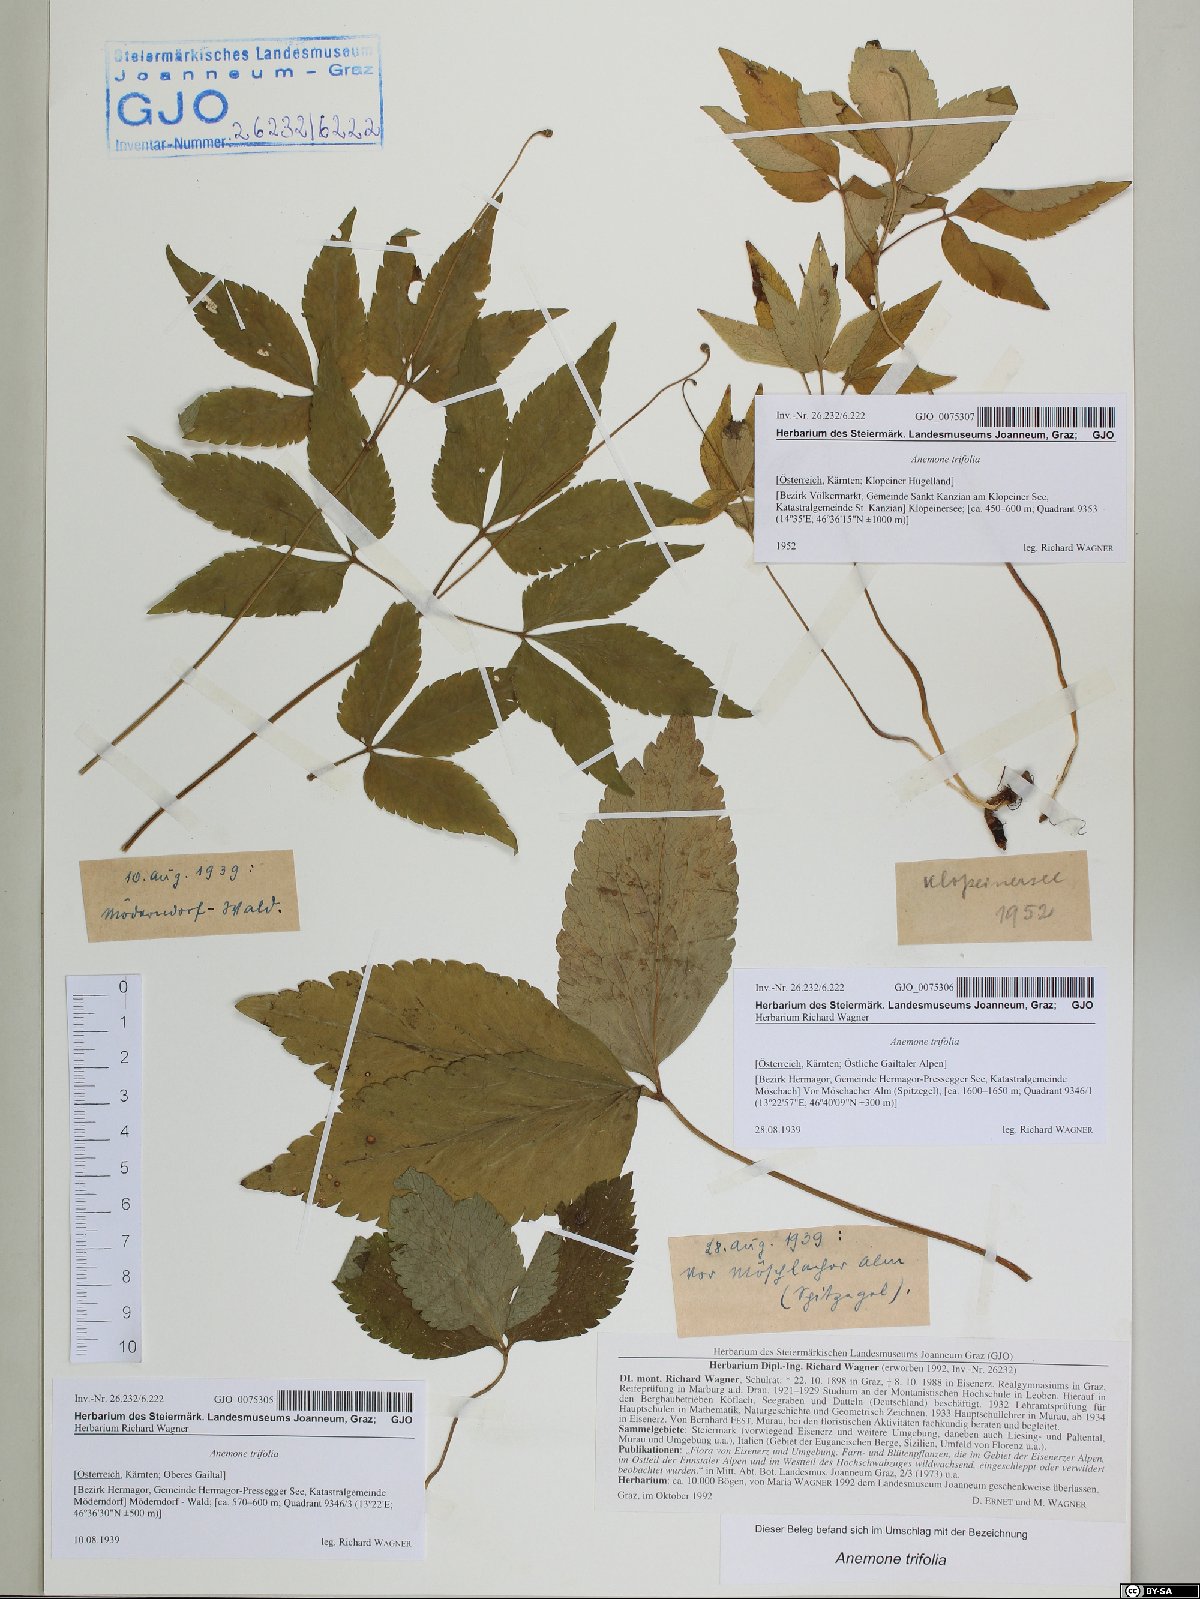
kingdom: Plantae
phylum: Tracheophyta
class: Magnoliopsida
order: Ranunculales
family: Ranunculaceae
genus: Anemone
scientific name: Anemone trifolia
